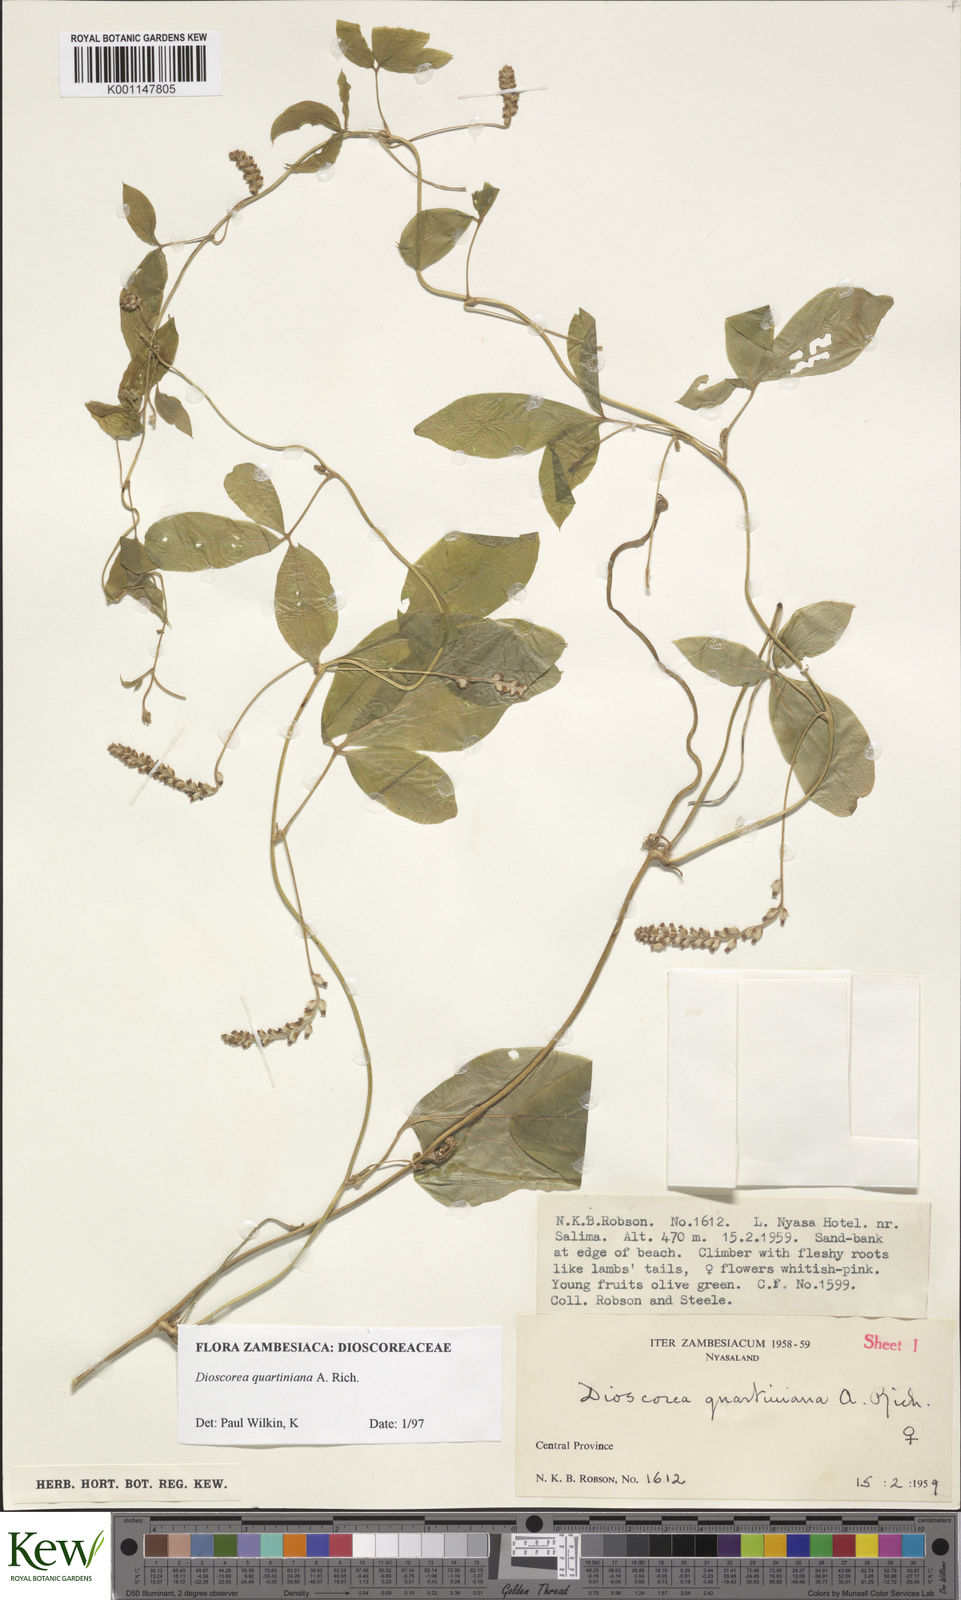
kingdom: Plantae
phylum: Tracheophyta
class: Liliopsida
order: Dioscoreales
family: Dioscoreaceae
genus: Dioscorea
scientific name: Dioscorea quartiniana
